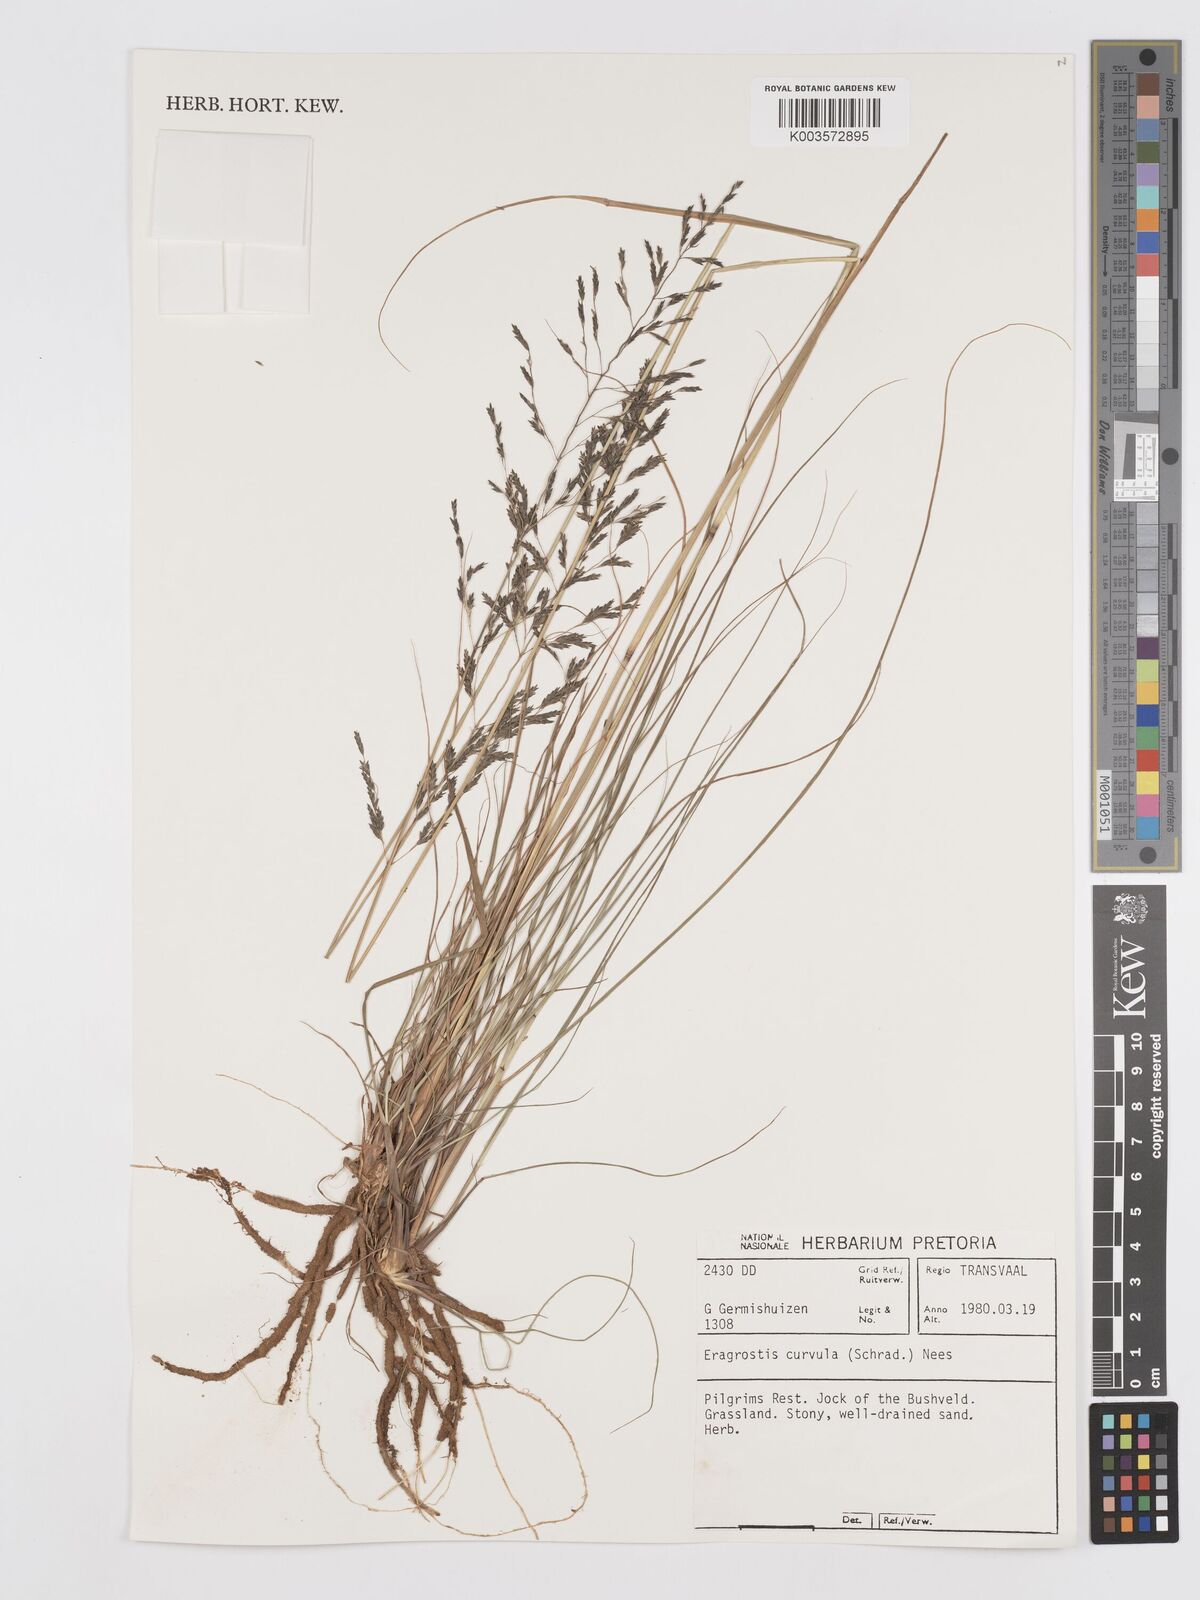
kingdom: Plantae
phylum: Tracheophyta
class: Liliopsida
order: Poales
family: Poaceae
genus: Eragrostis
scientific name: Eragrostis curvula
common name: African love-grass
